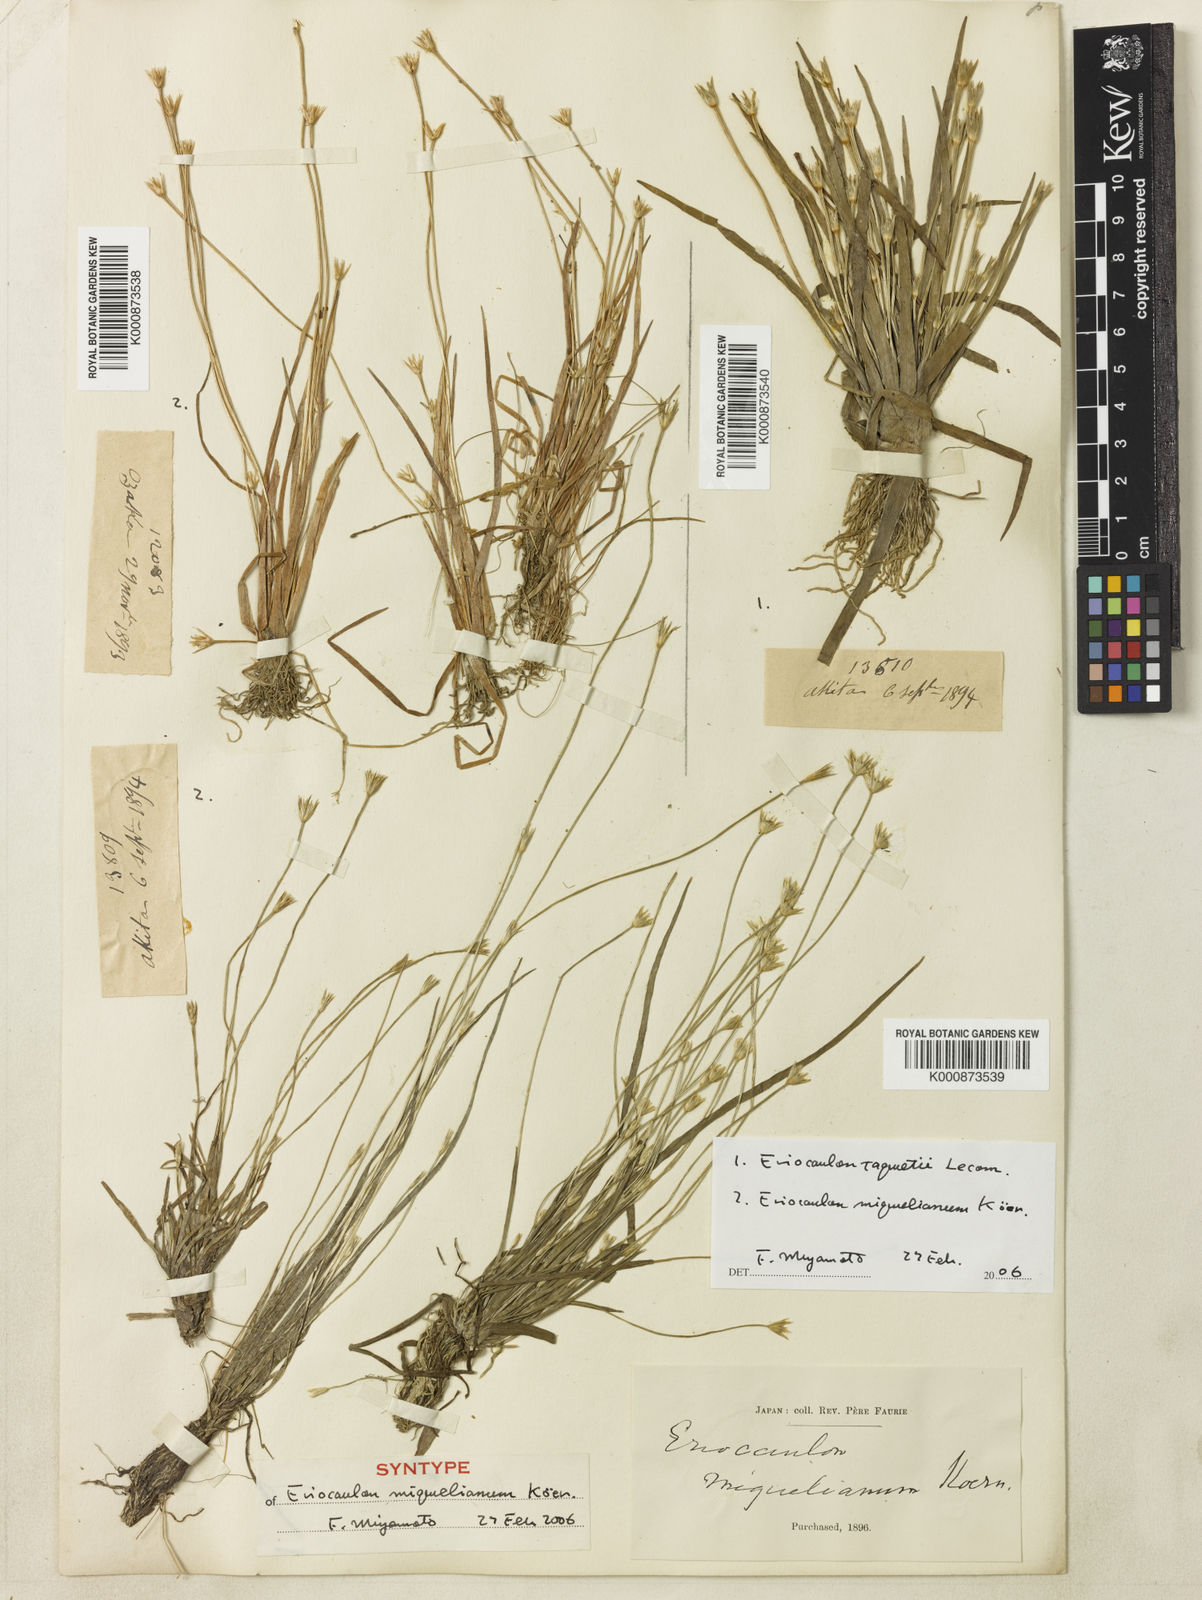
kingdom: Plantae
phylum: Tracheophyta
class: Liliopsida
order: Poales
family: Eriocaulaceae
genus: Eriocaulon
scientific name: Eriocaulon
